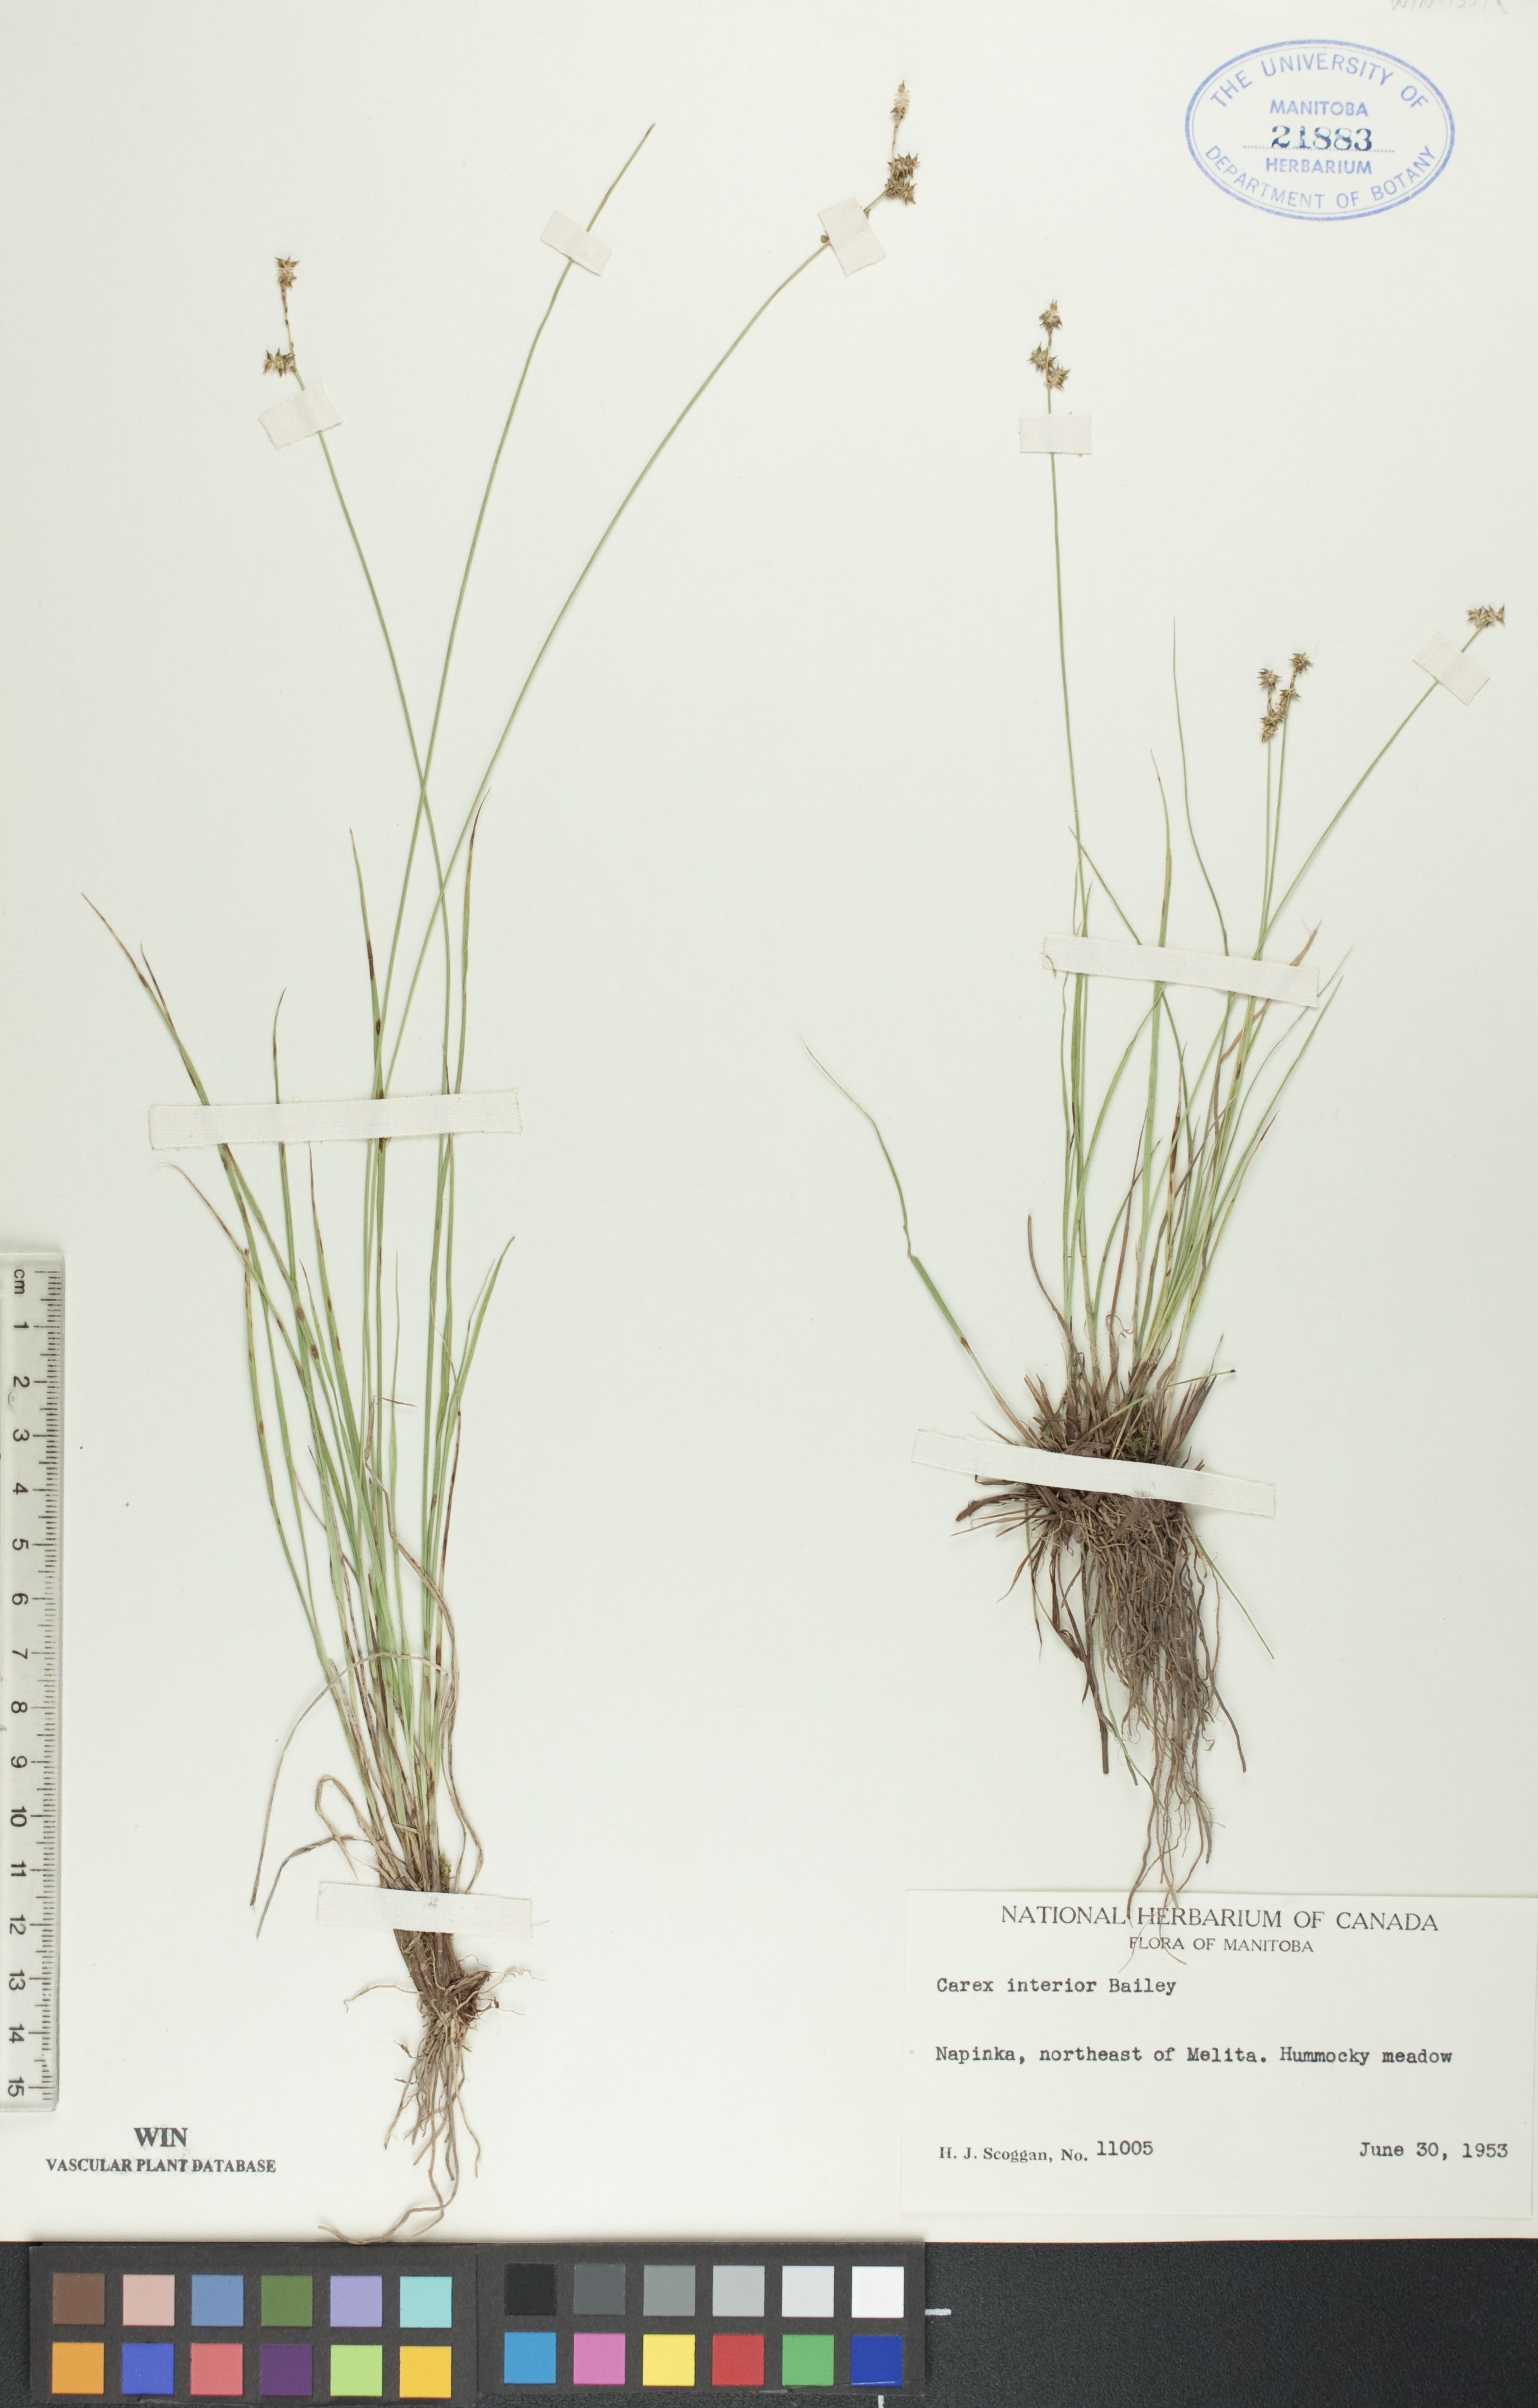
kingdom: Plantae
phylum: Tracheophyta
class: Liliopsida
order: Poales
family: Cyperaceae
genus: Carex
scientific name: Carex interior
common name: Inland sedge
